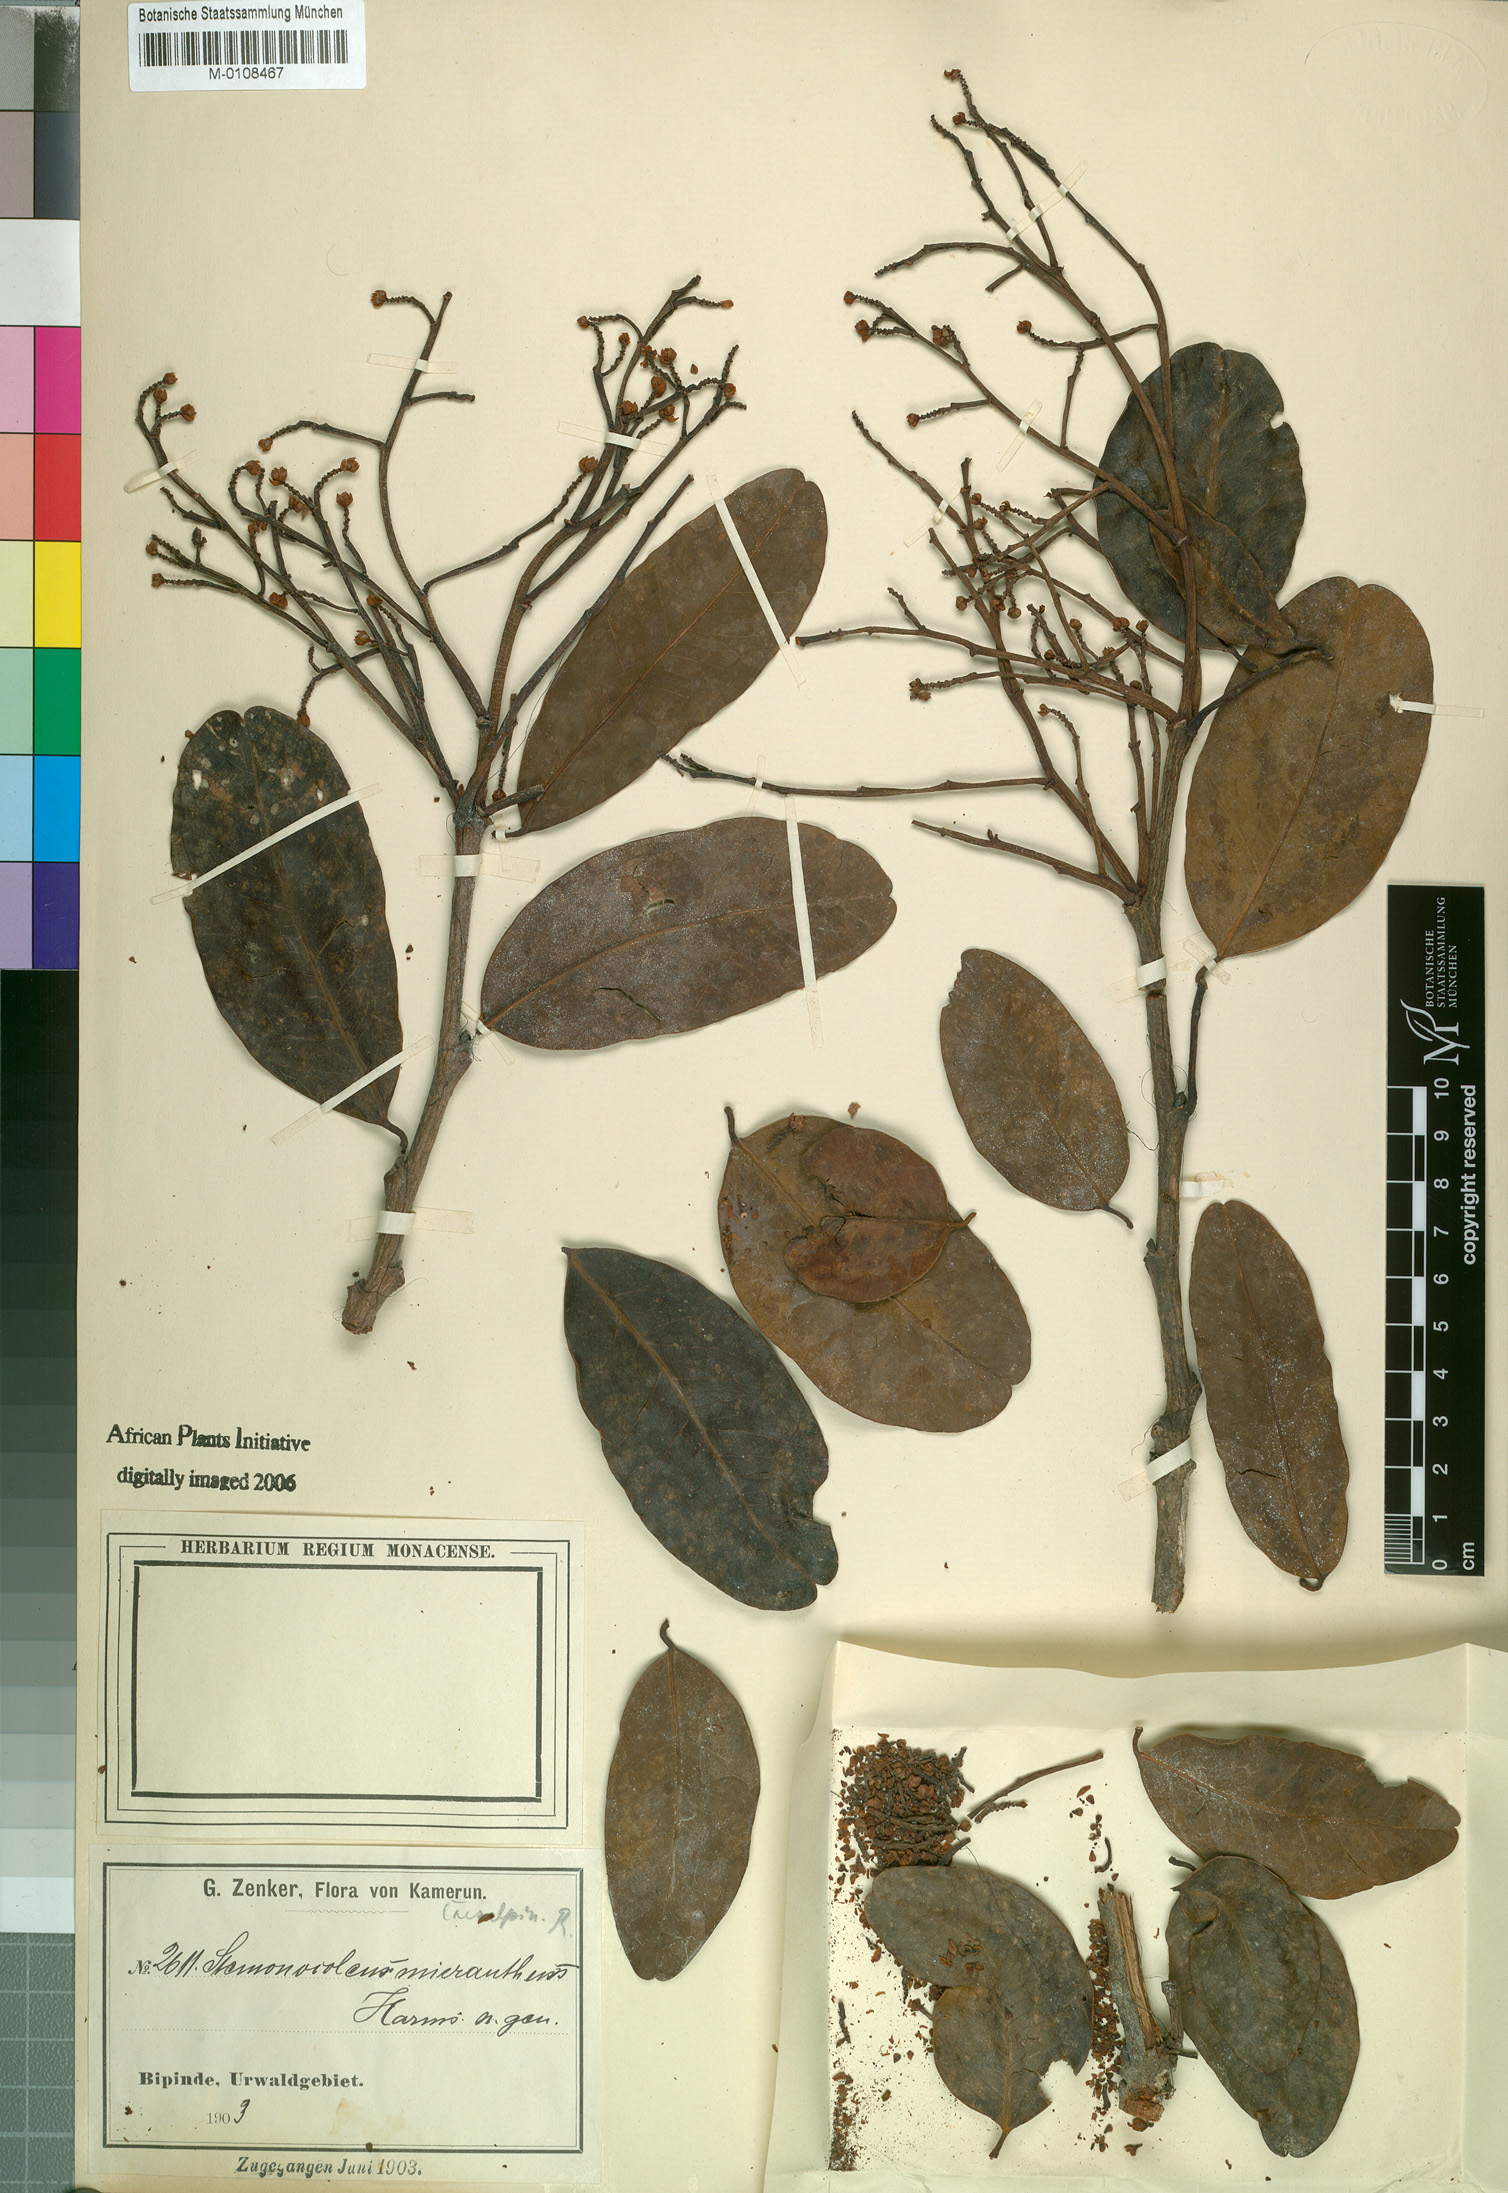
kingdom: Plantae
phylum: Tracheophyta
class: Magnoliopsida
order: Fabales
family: Fabaceae
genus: Stemonocoleus
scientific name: Stemonocoleus micranthus
